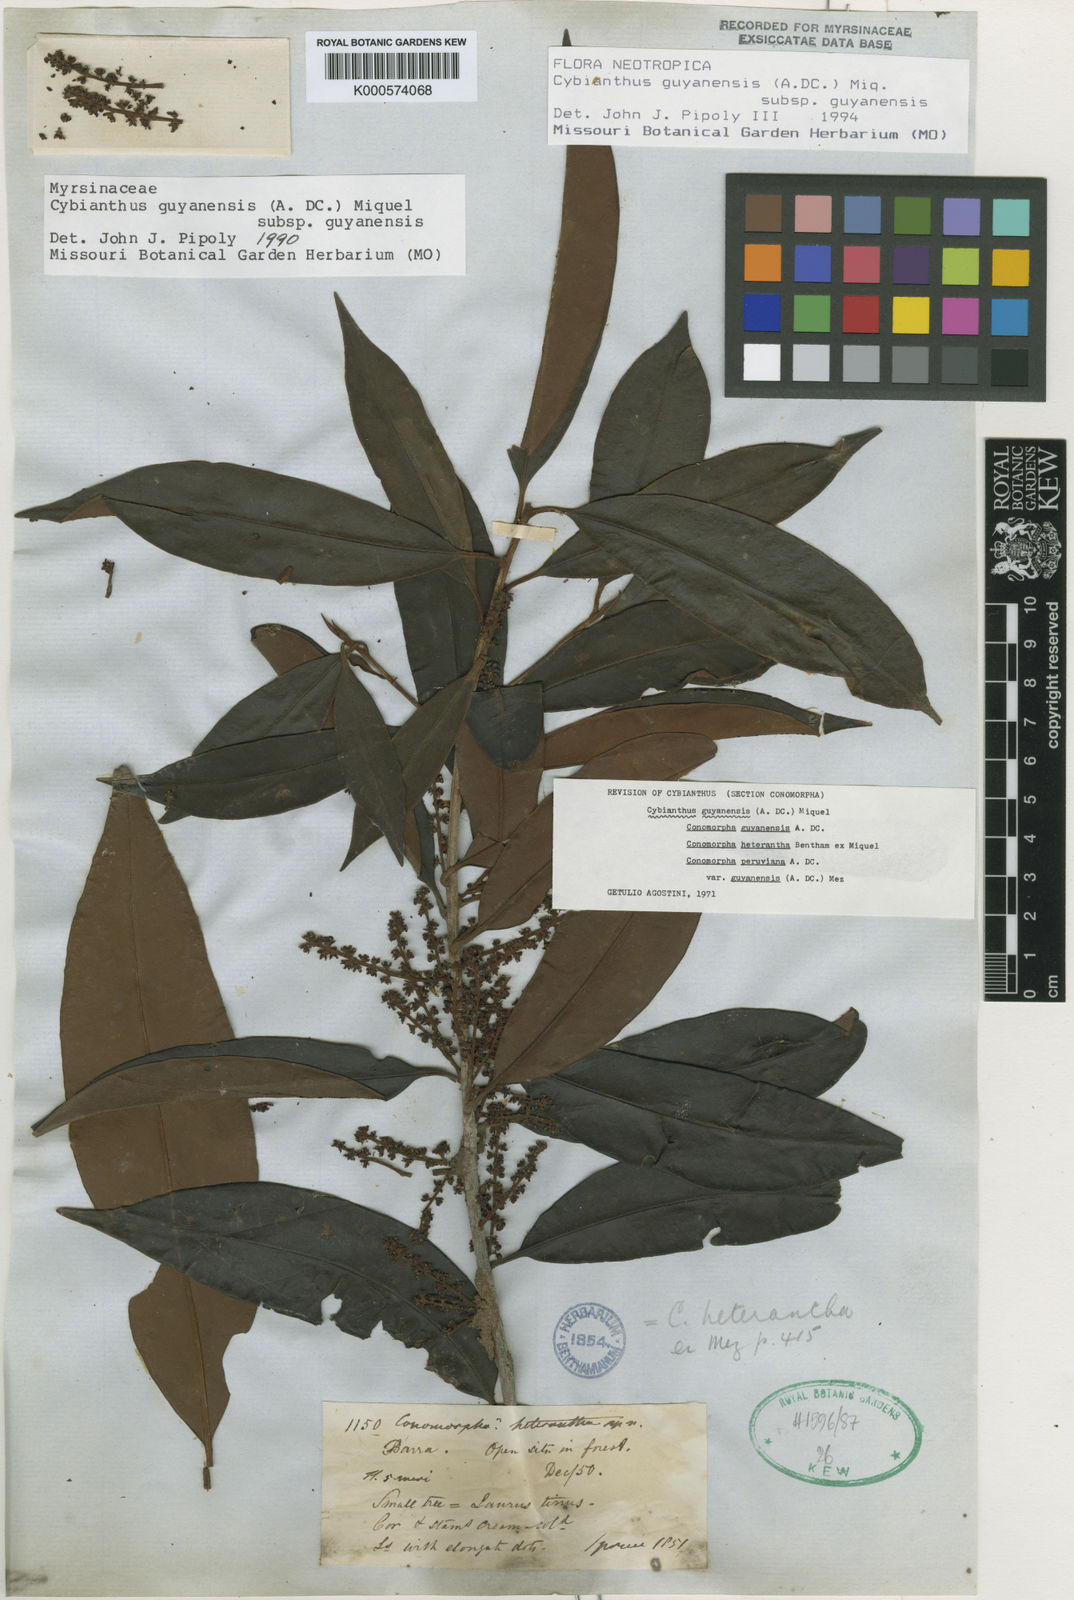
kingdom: Plantae
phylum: Tracheophyta
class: Magnoliopsida
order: Ericales
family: Primulaceae
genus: Cybianthus
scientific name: Cybianthus guyanensis
